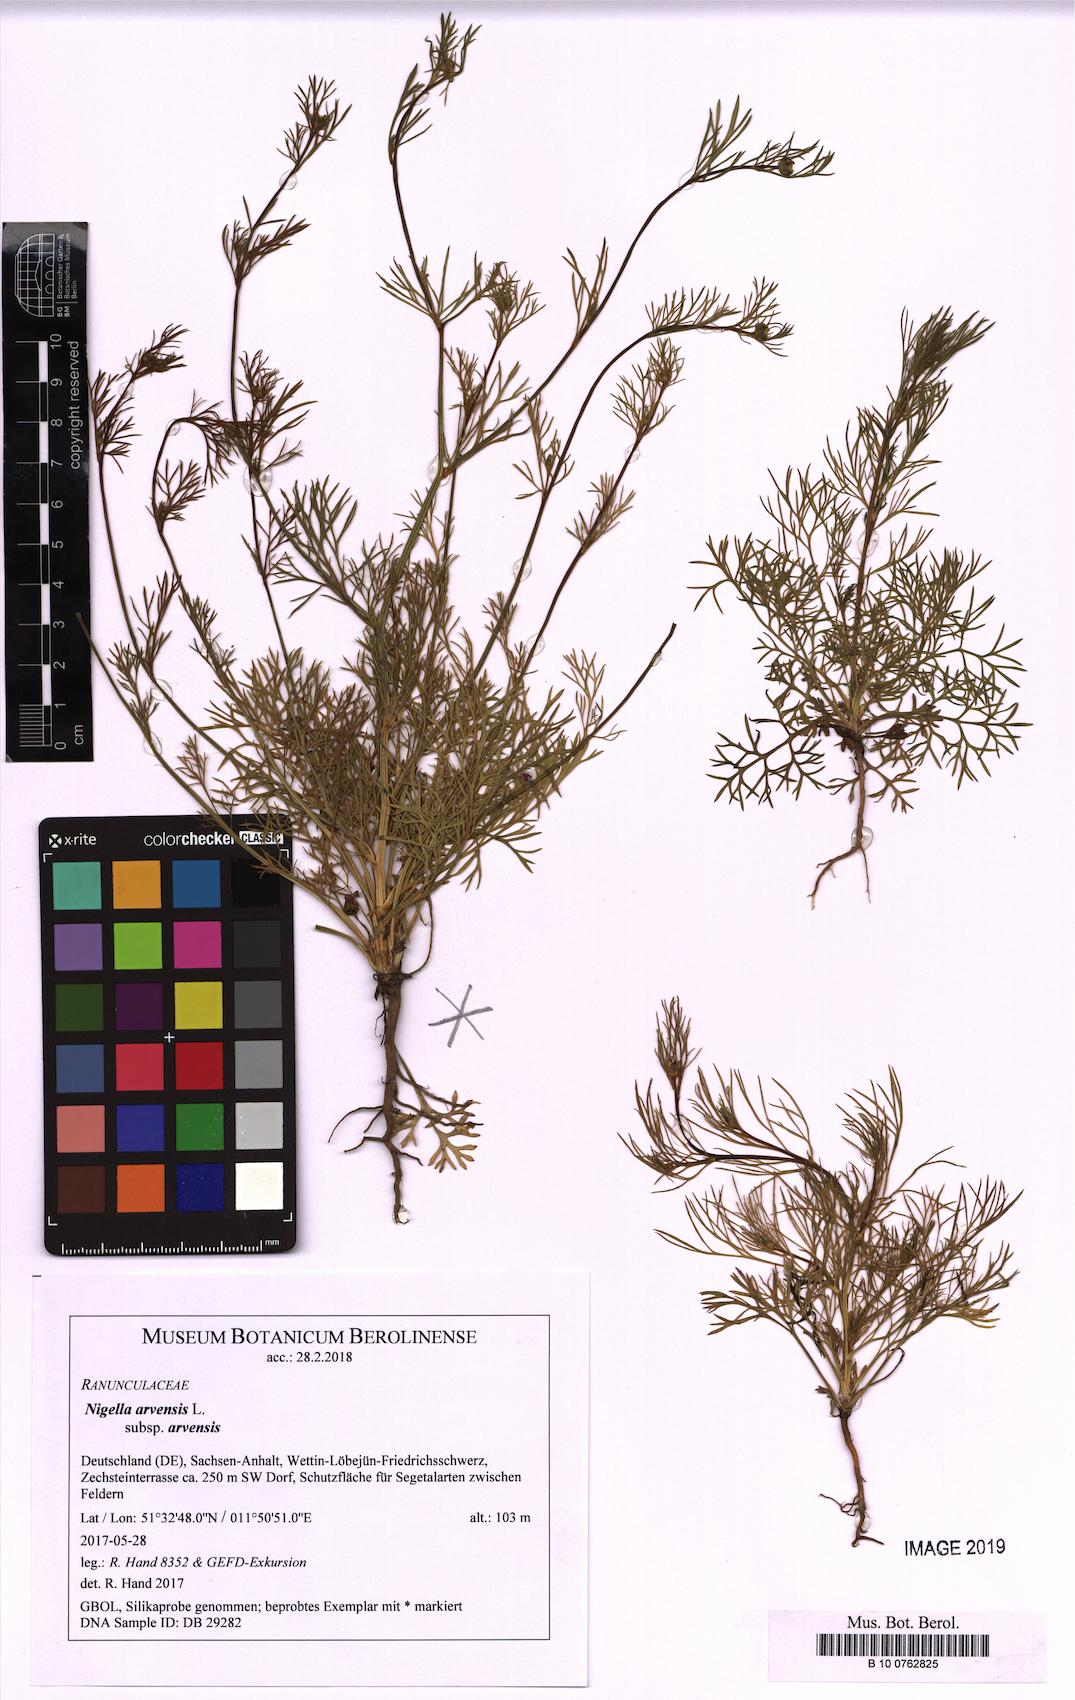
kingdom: Plantae
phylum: Tracheophyta
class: Magnoliopsida
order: Ranunculales
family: Ranunculaceae
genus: Nigella
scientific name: Nigella arvensis
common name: Wild fennel-flower
